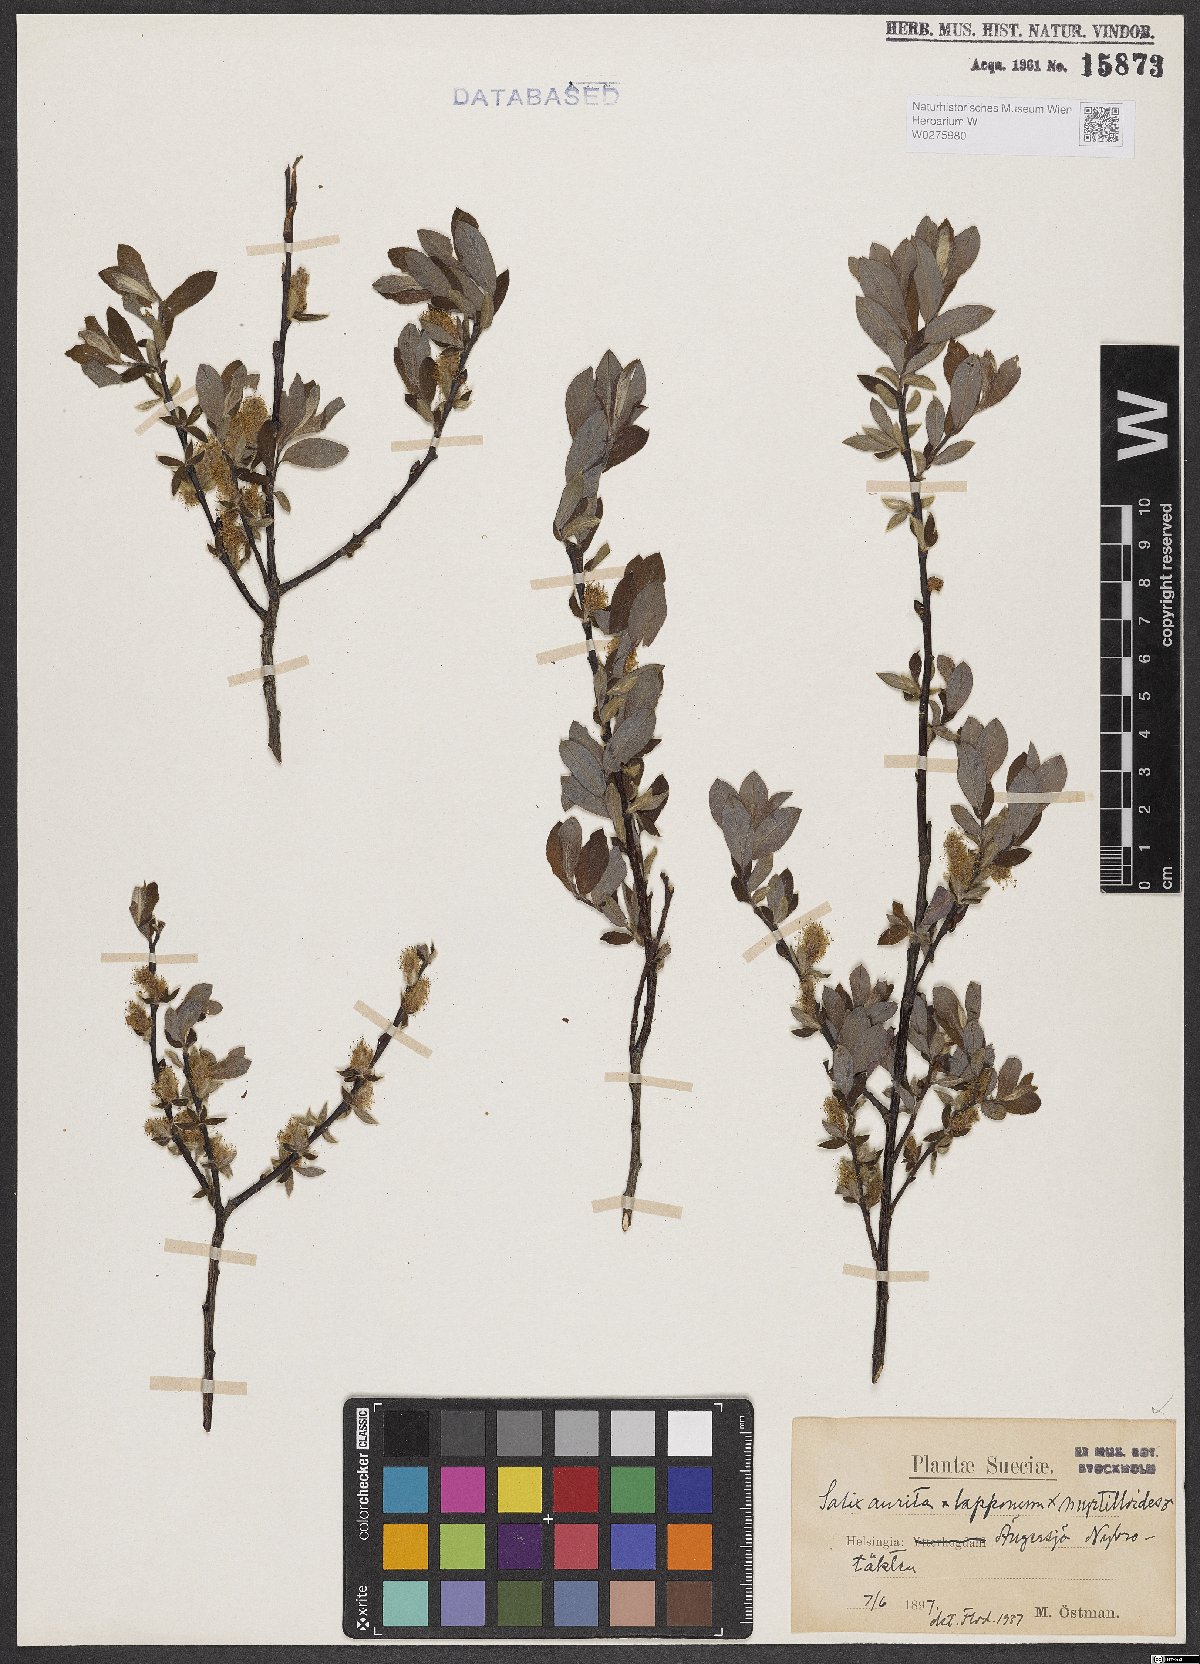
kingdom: Plantae
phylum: Tracheophyta
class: Magnoliopsida
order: Malpighiales
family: Salicaceae
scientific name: Salicaceae
